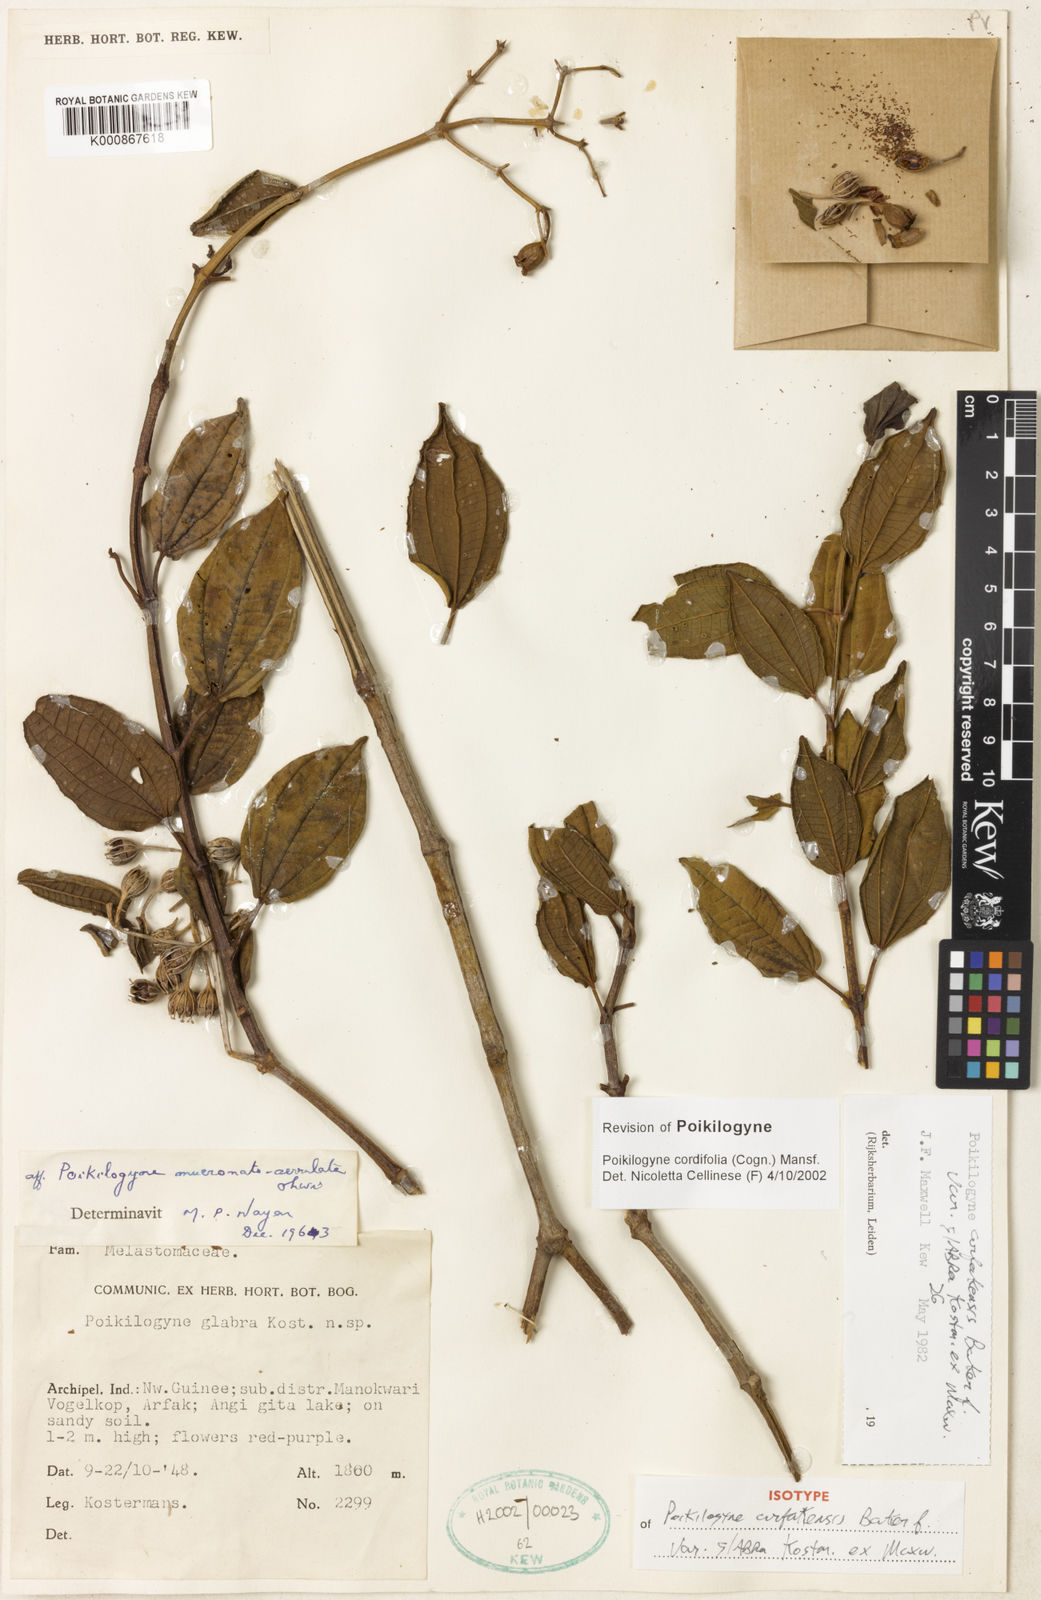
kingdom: Plantae
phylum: Tracheophyta
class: Magnoliopsida
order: Myrtales
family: Melastomataceae
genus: Poikilogyne
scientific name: Poikilogyne cordifolia
